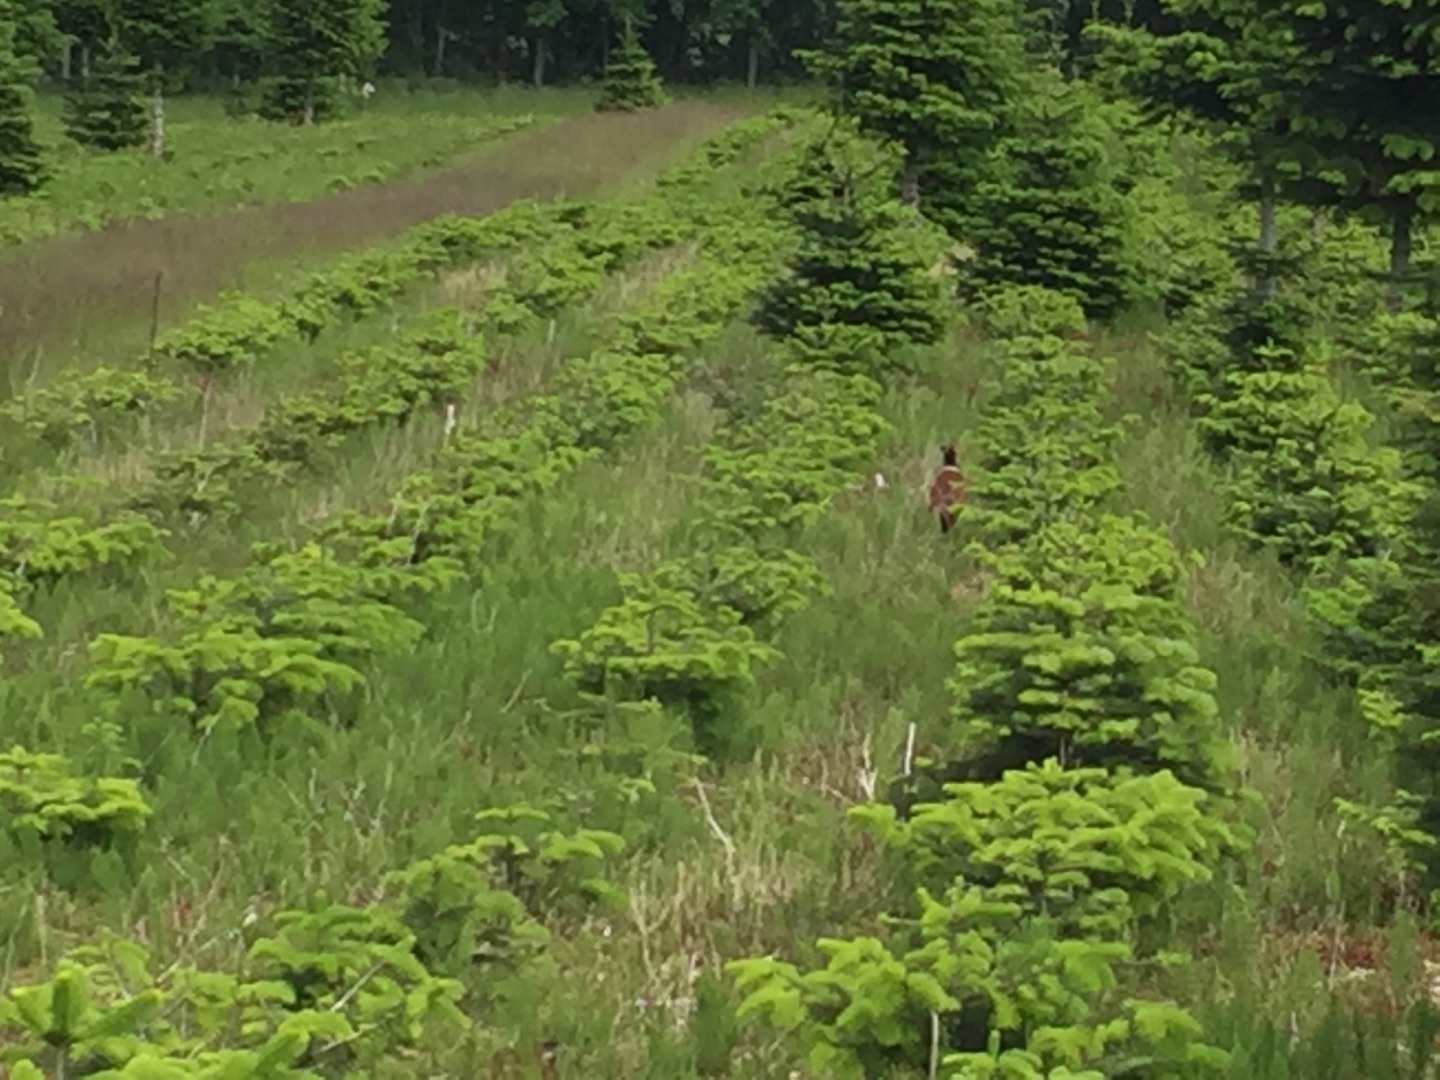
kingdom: Animalia
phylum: Chordata
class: Aves
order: Galliformes
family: Phasianidae
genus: Phasianus
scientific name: Phasianus colchicus
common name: Fasan
